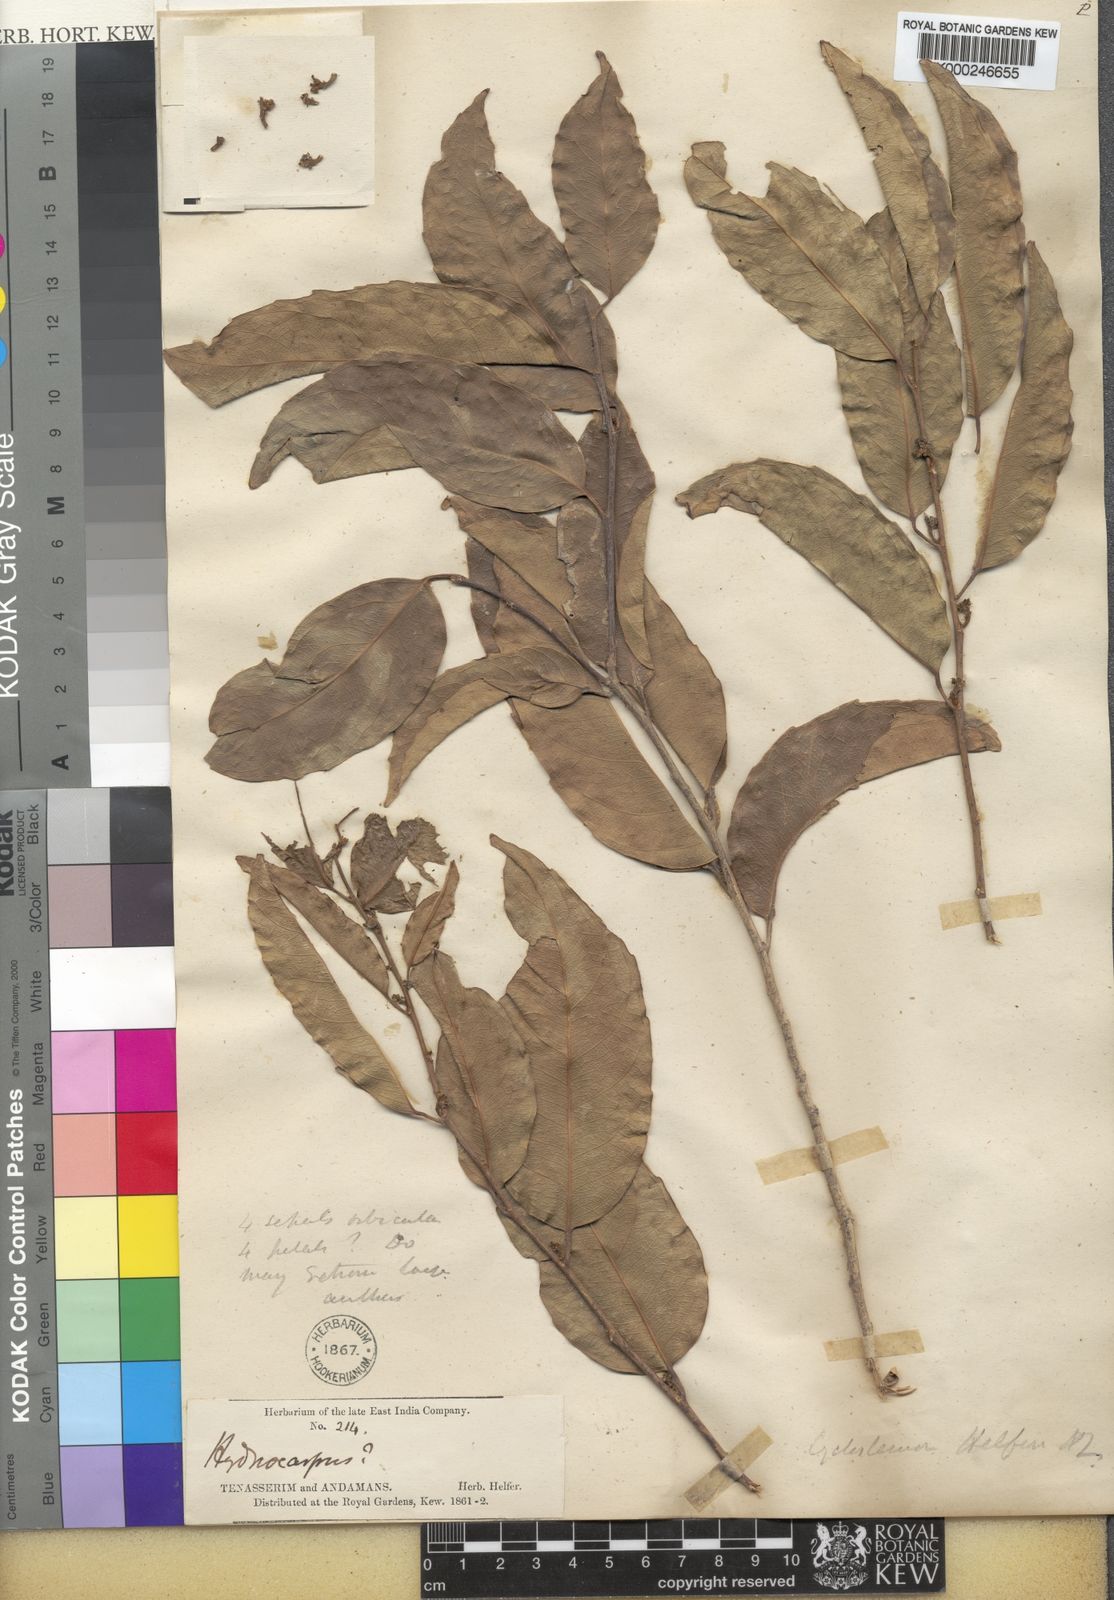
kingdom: Plantae
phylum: Tracheophyta
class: Magnoliopsida
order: Malpighiales
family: Putranjivaceae
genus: Drypetes
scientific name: Drypetes helferi
